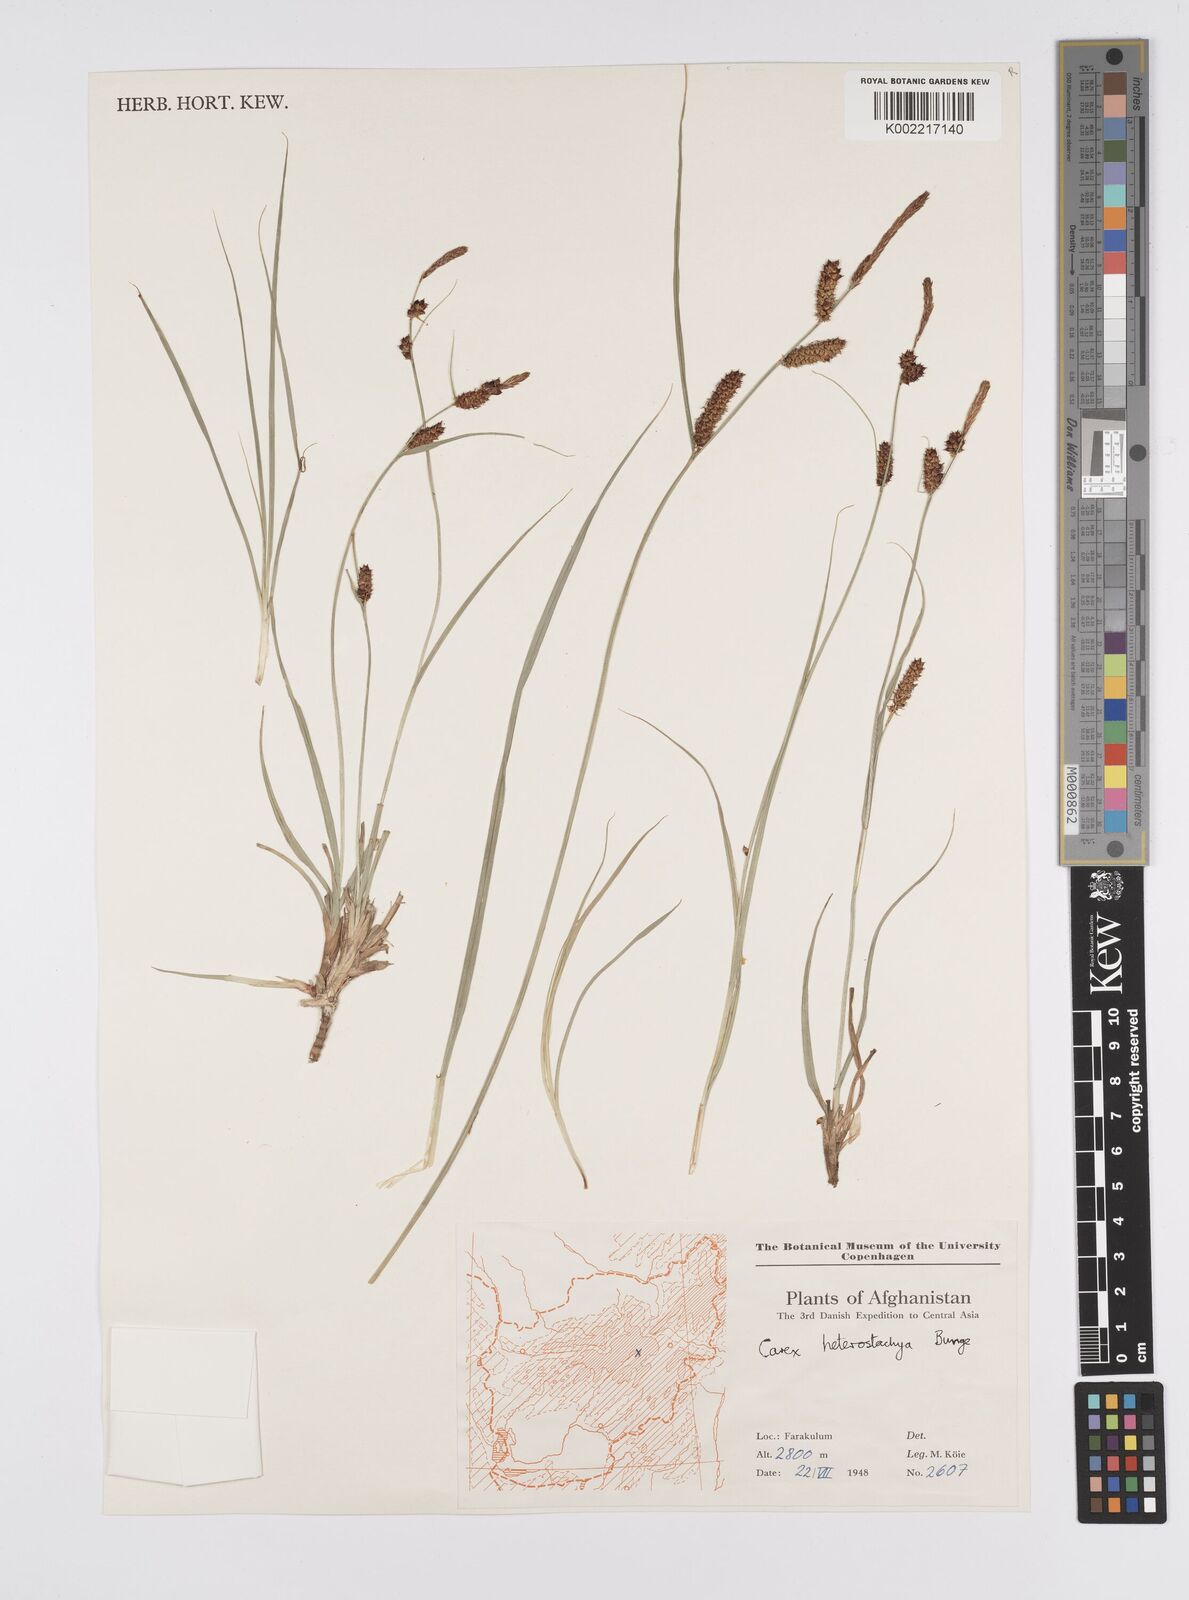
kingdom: Plantae
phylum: Tracheophyta
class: Liliopsida
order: Poales
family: Cyperaceae
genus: Carex
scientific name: Carex heterostachya
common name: Different-spike sedge
